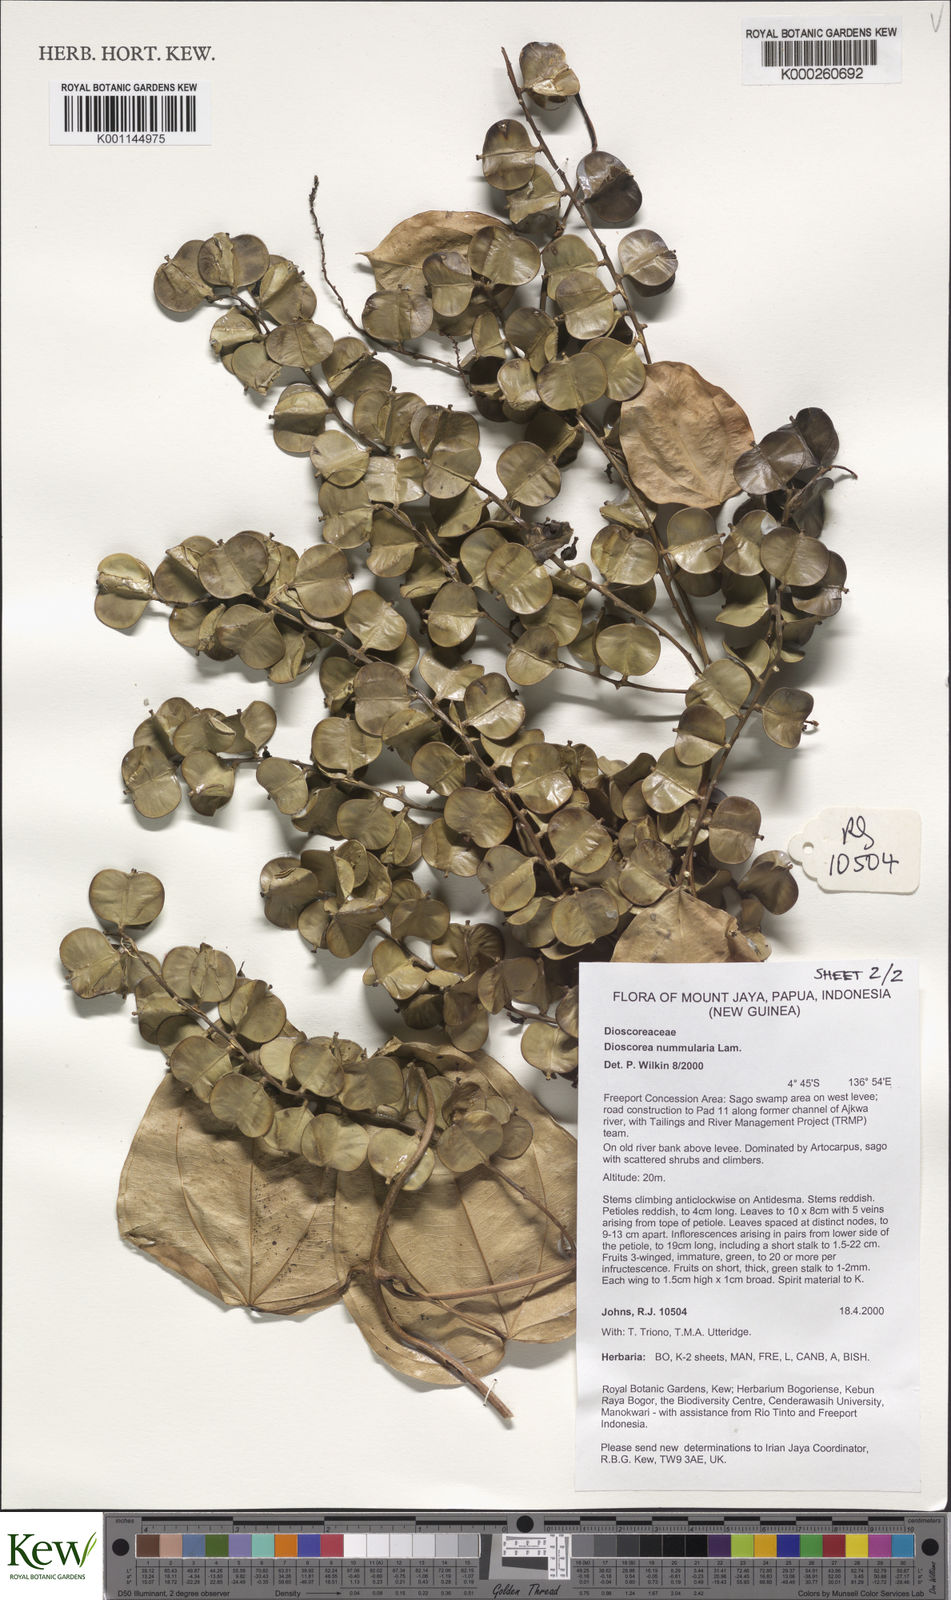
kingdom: Plantae
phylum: Tracheophyta
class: Liliopsida
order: Dioscoreales
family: Dioscoreaceae
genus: Dioscorea
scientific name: Dioscorea nummularia
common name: Pacific yam
